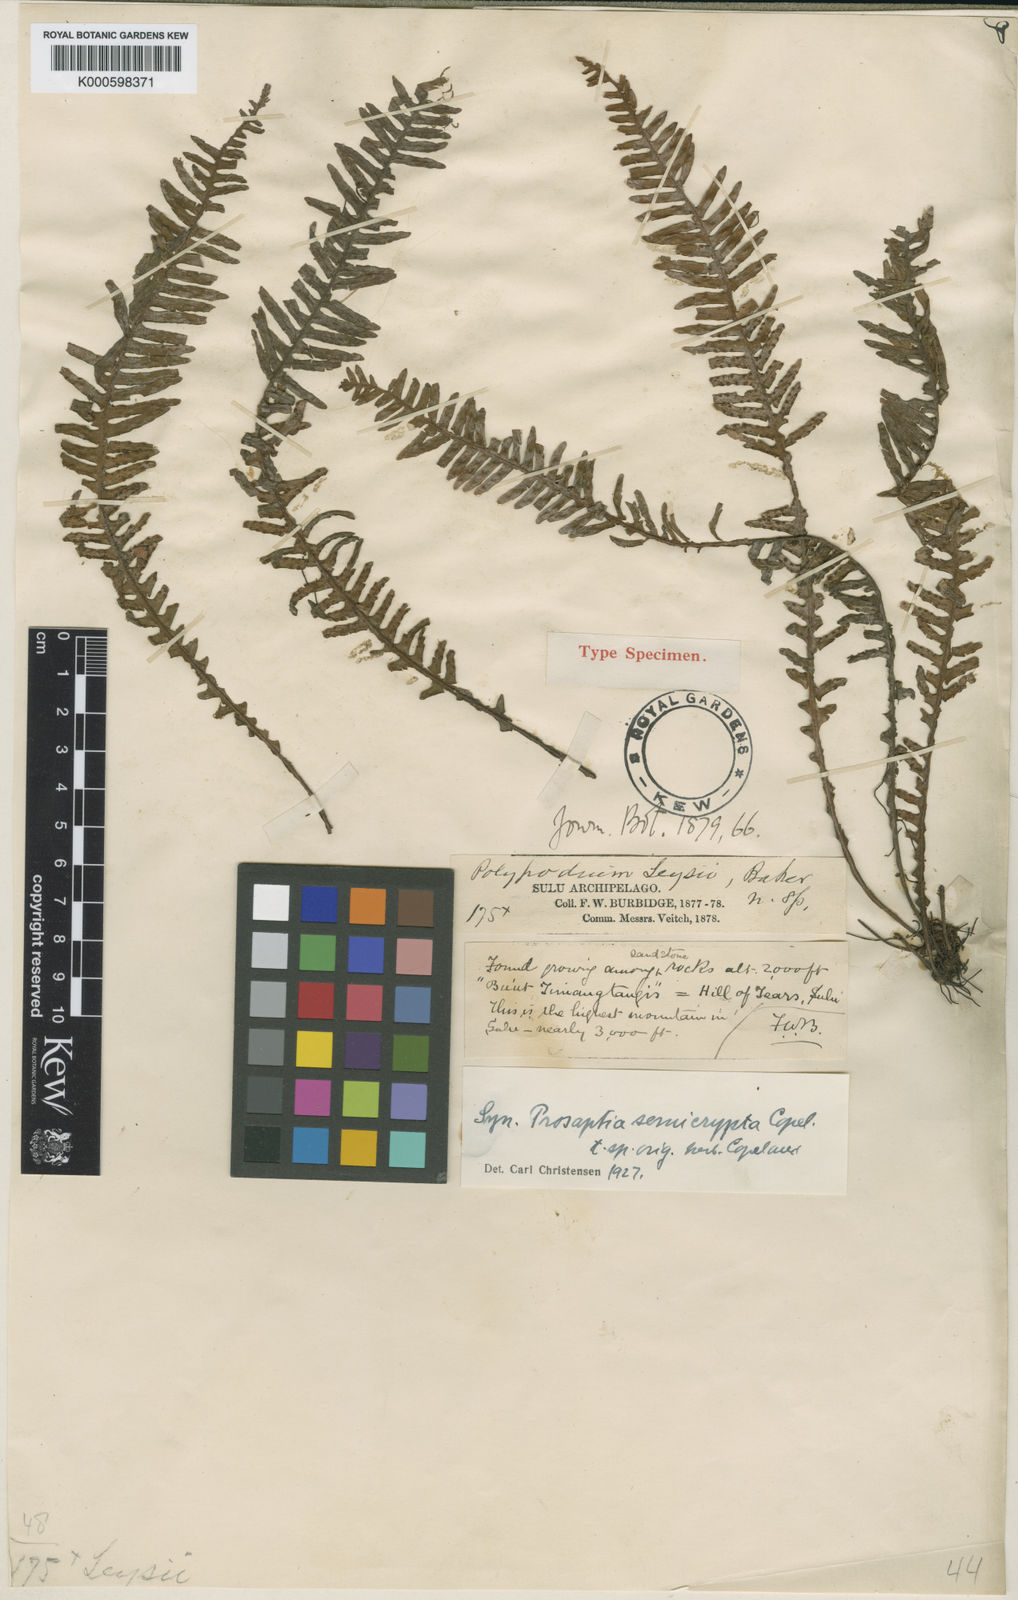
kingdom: Plantae
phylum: Tracheophyta
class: Polypodiopsida
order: Polypodiales
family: Polypodiaceae
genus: Prosaptia
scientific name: Prosaptia pectinata
